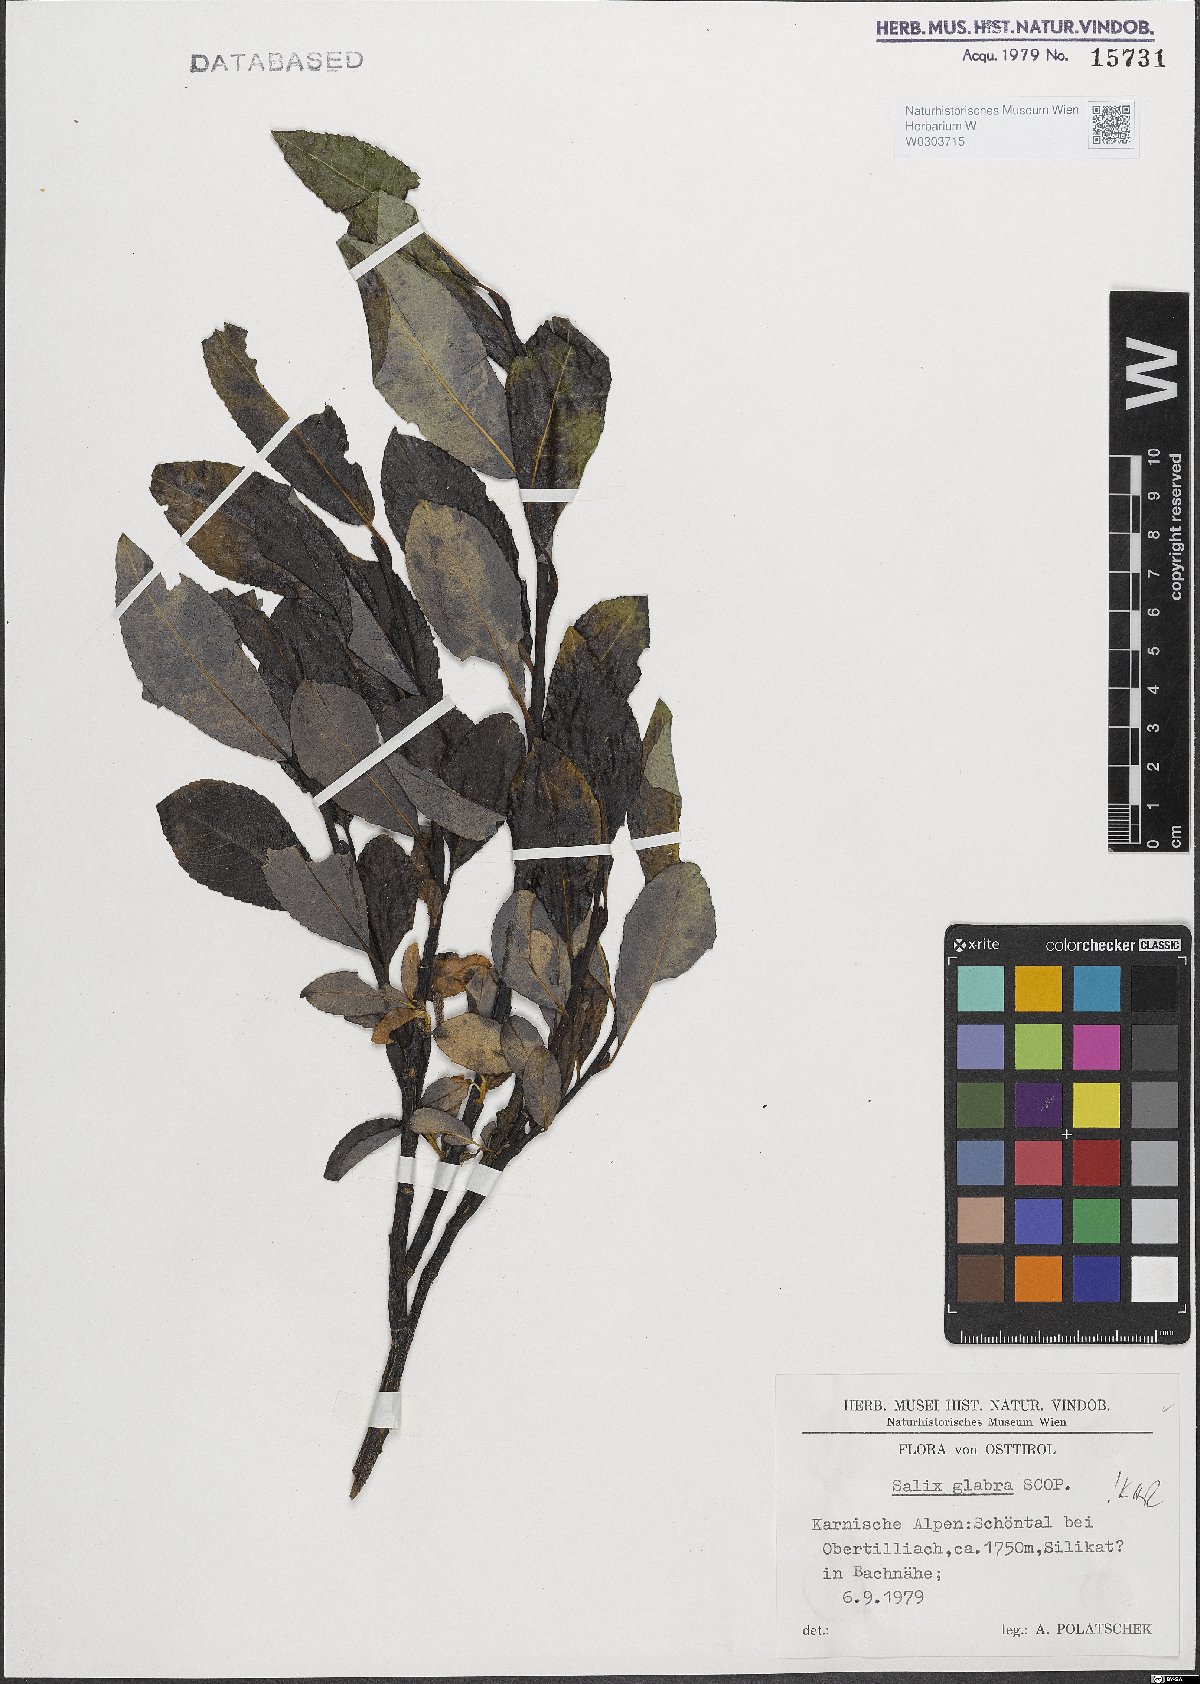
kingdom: Plantae
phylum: Tracheophyta
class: Magnoliopsida
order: Malpighiales
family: Salicaceae
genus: Salix
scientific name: Salix glabra
